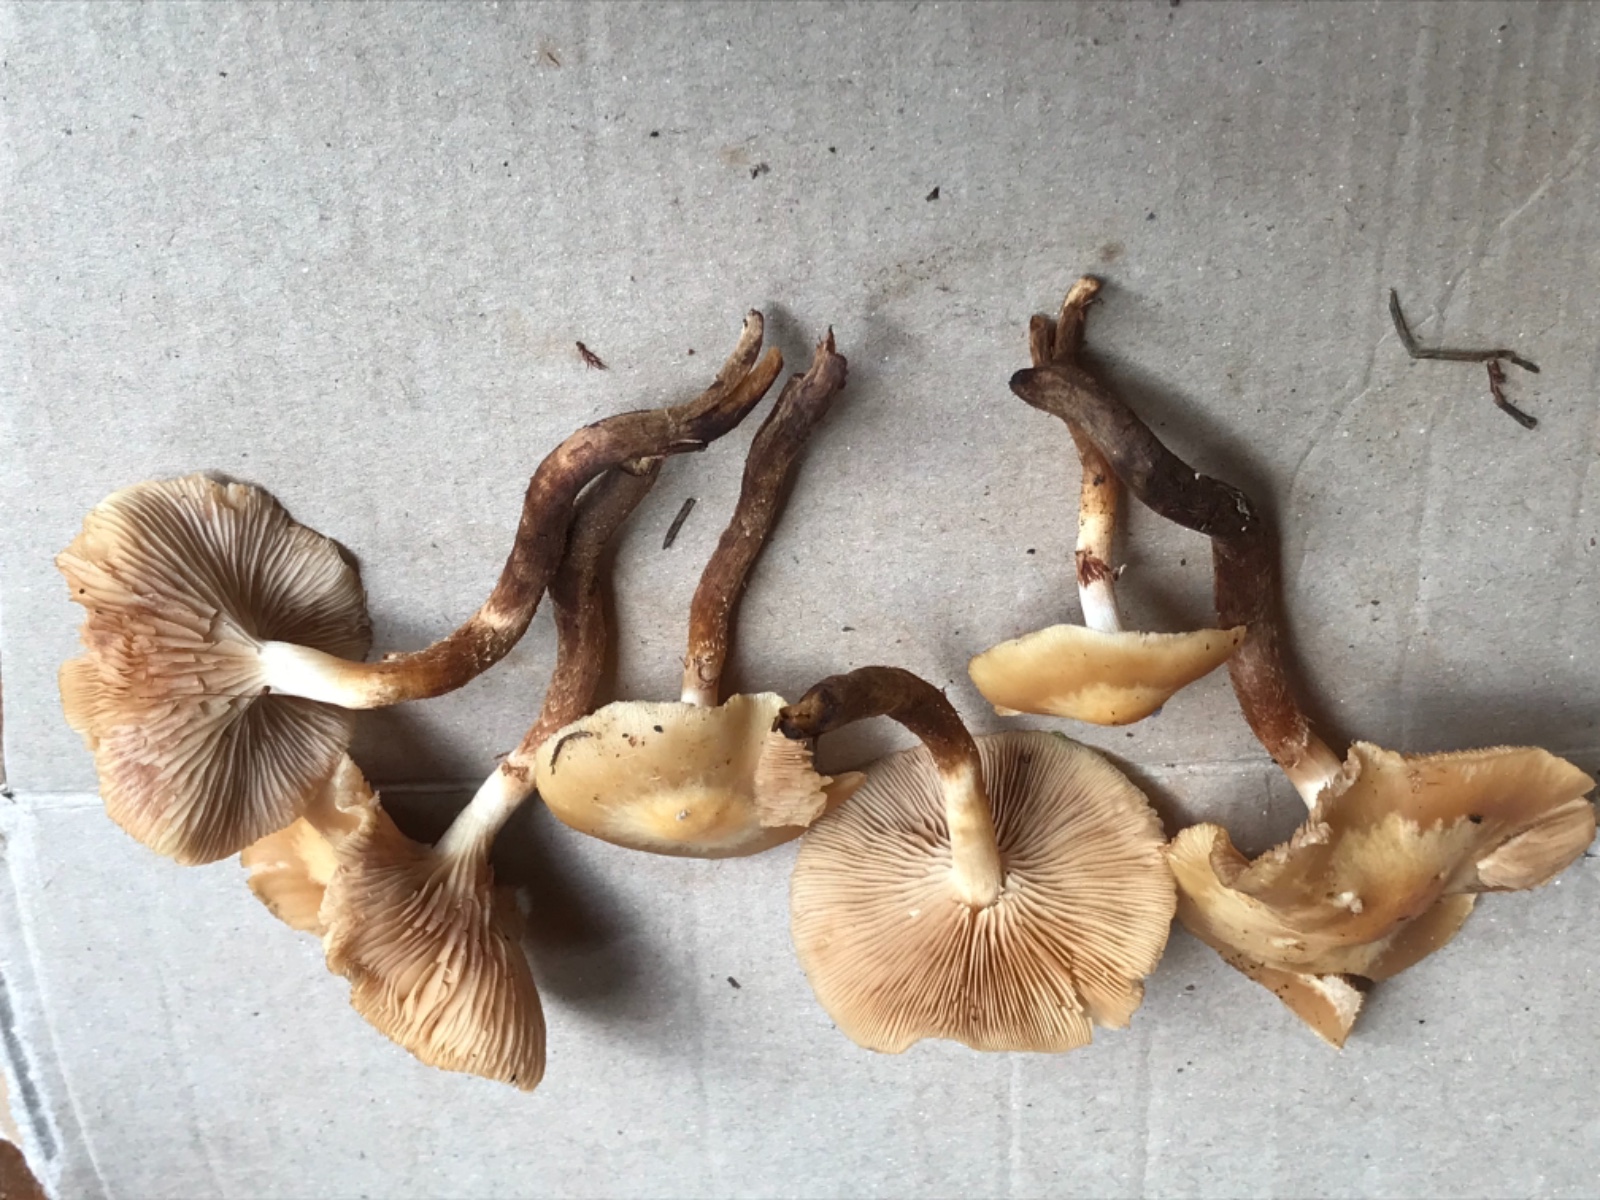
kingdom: Fungi
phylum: Basidiomycota
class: Agaricomycetes
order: Agaricales
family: Strophariaceae
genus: Kuehneromyces
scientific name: Kuehneromyces mutabilis
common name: foranderlig skælhat
